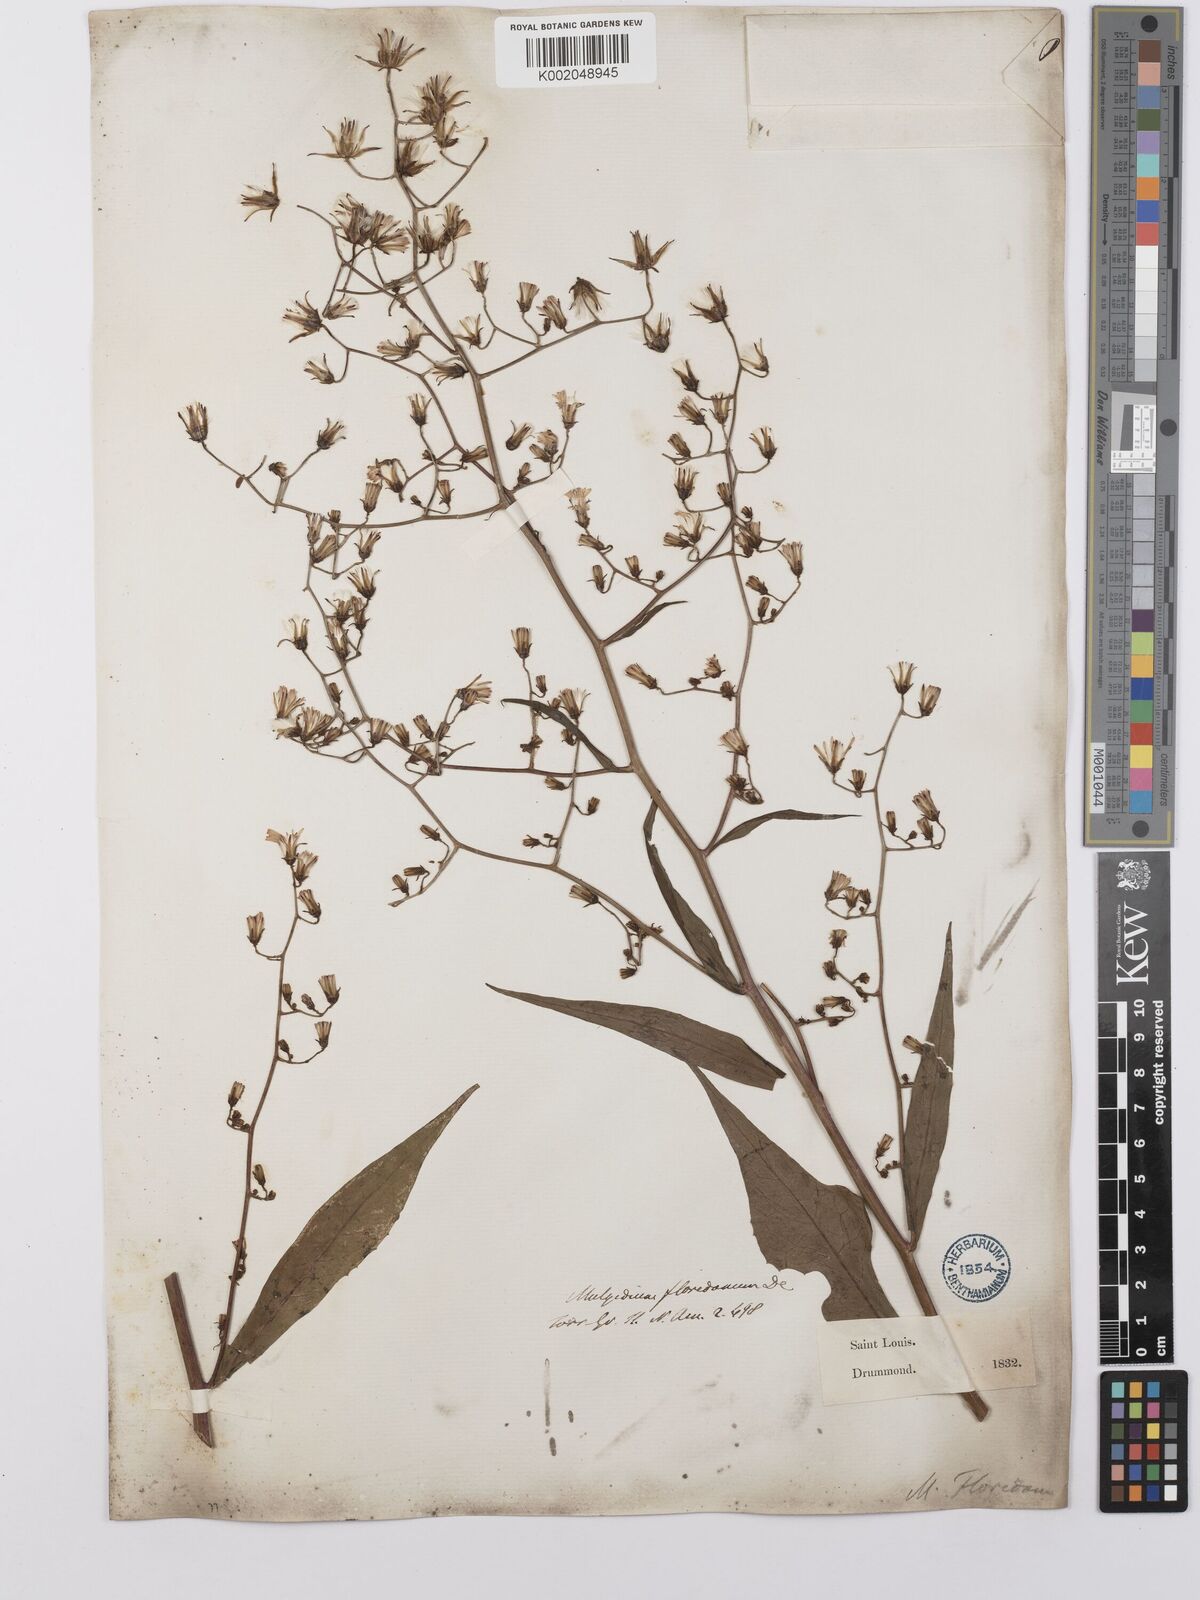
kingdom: Plantae
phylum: Tracheophyta
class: Magnoliopsida
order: Asterales
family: Asteraceae
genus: Lactuca
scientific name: Lactuca floridana
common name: Woodland lettuce
